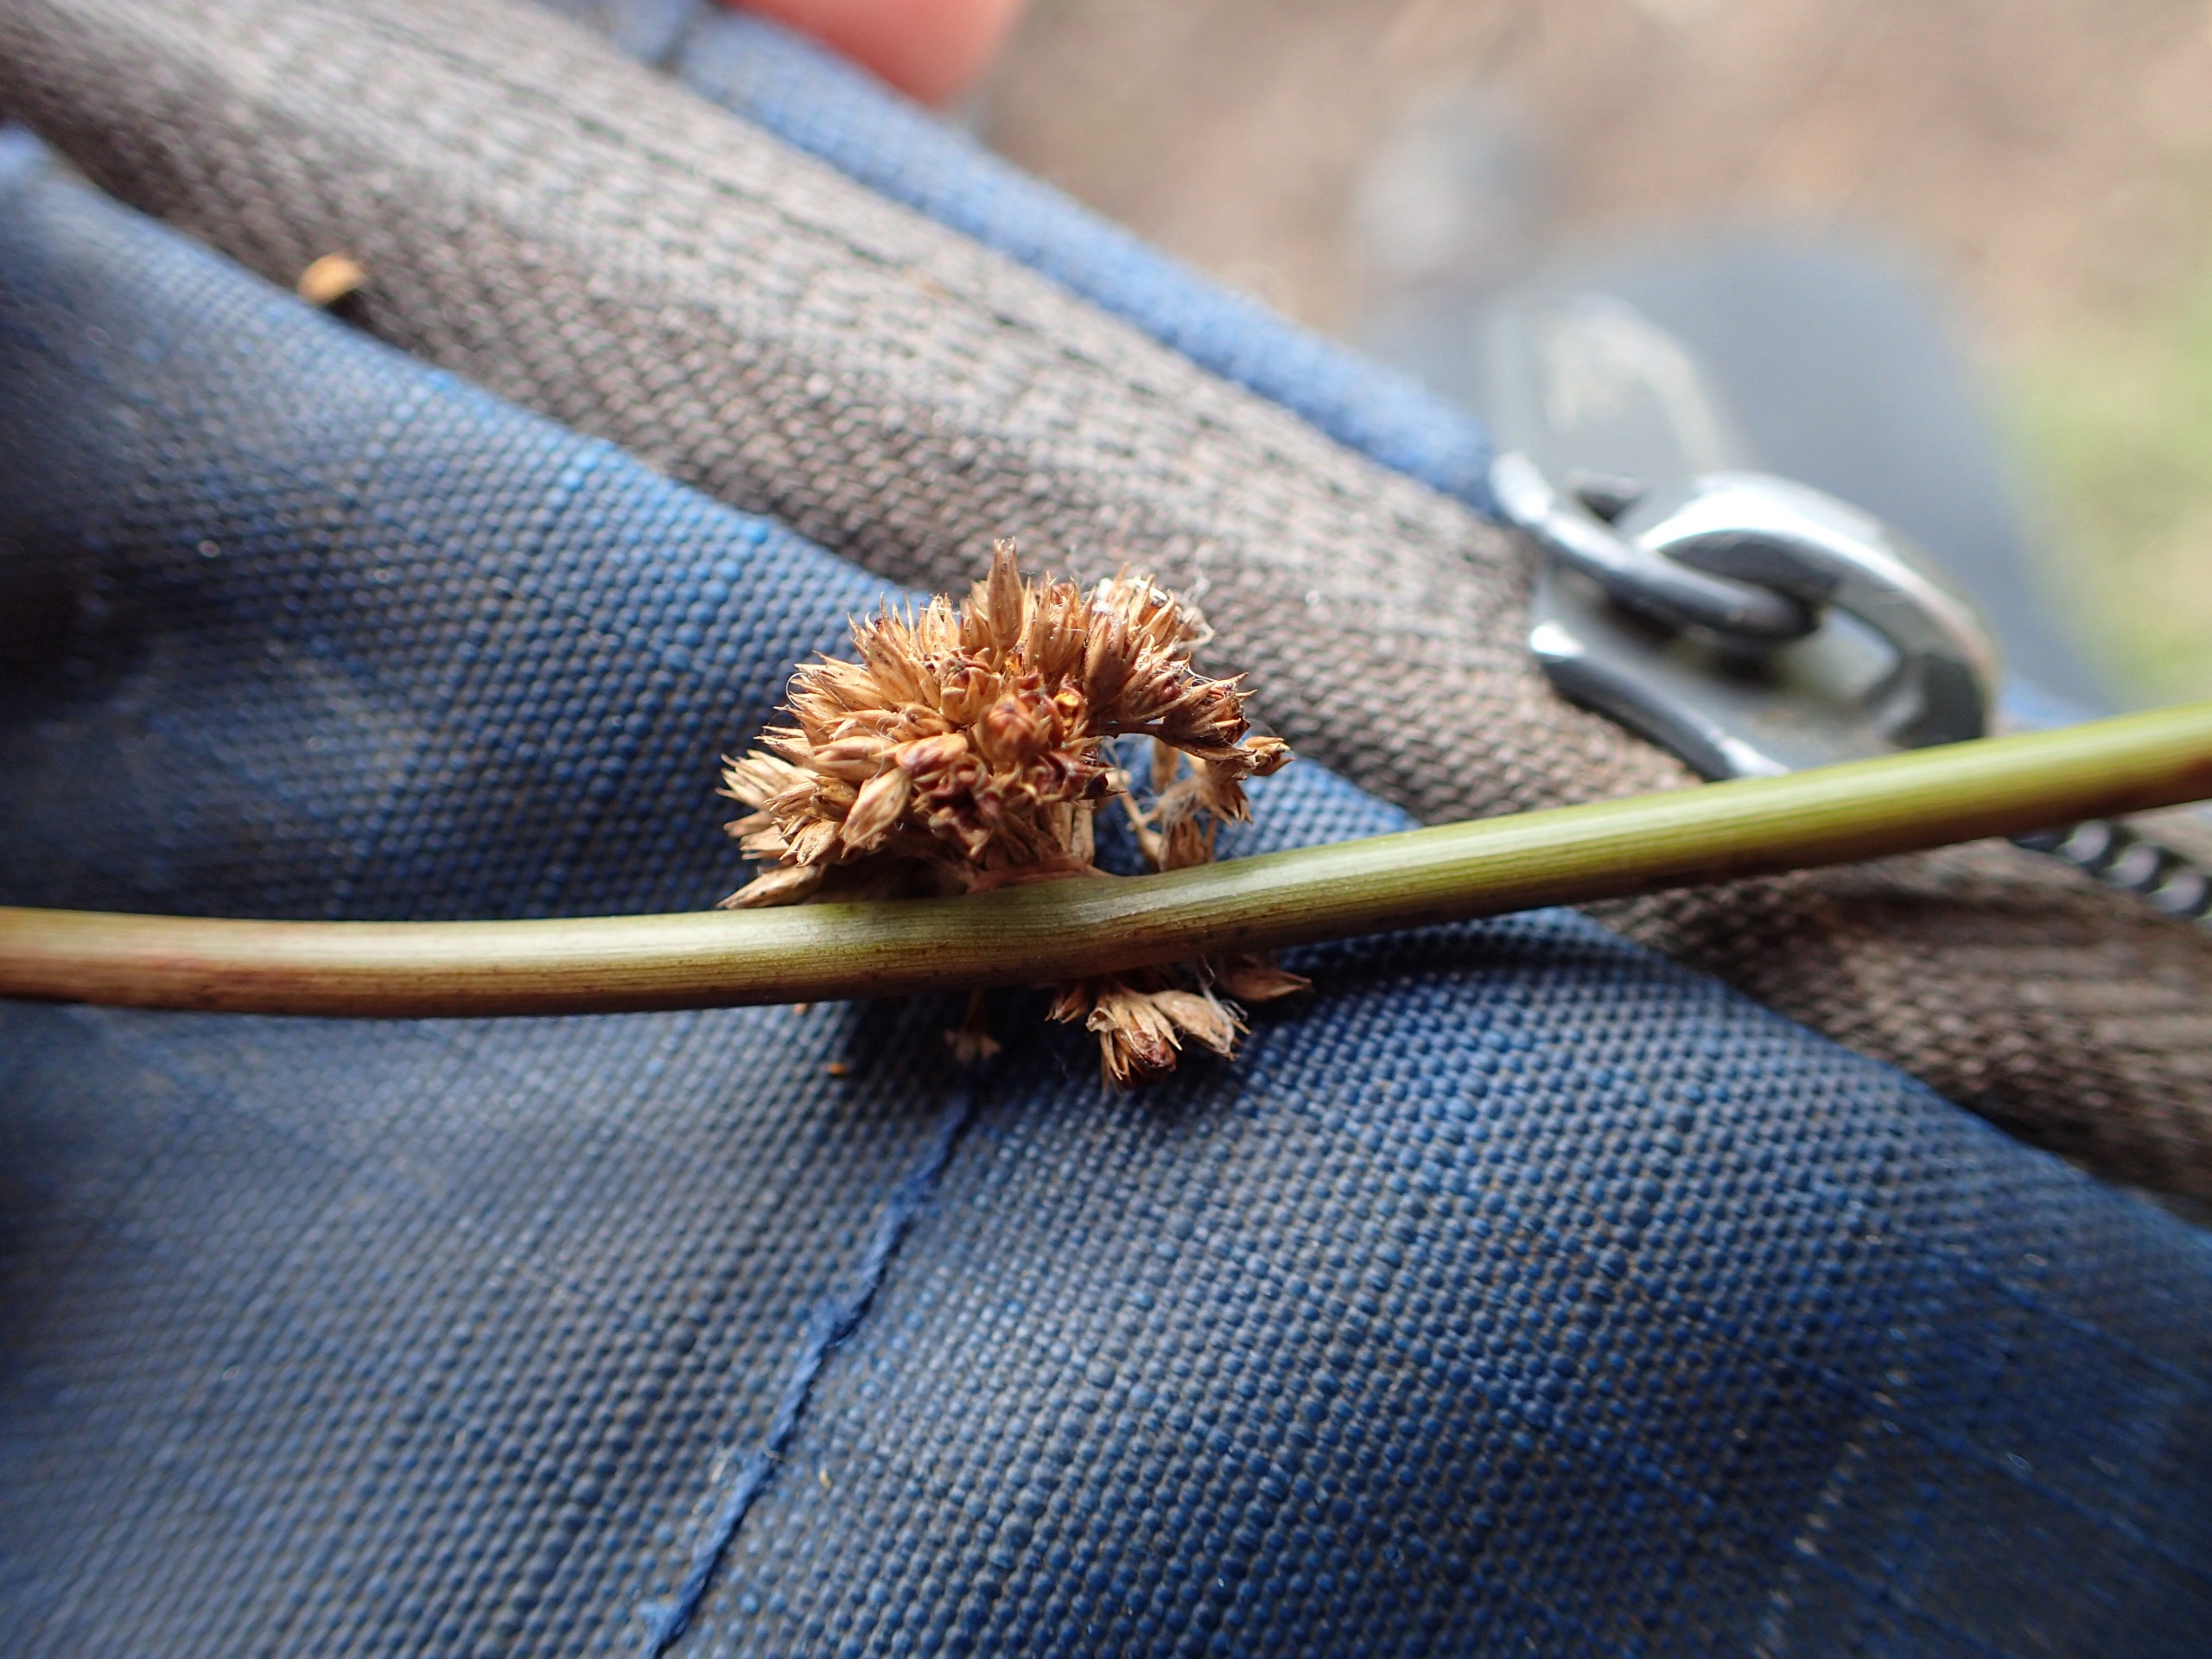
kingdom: Plantae
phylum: Tracheophyta
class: Liliopsida
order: Poales
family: Juncaceae
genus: Juncus
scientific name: Juncus effusus
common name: Lyse-siv
